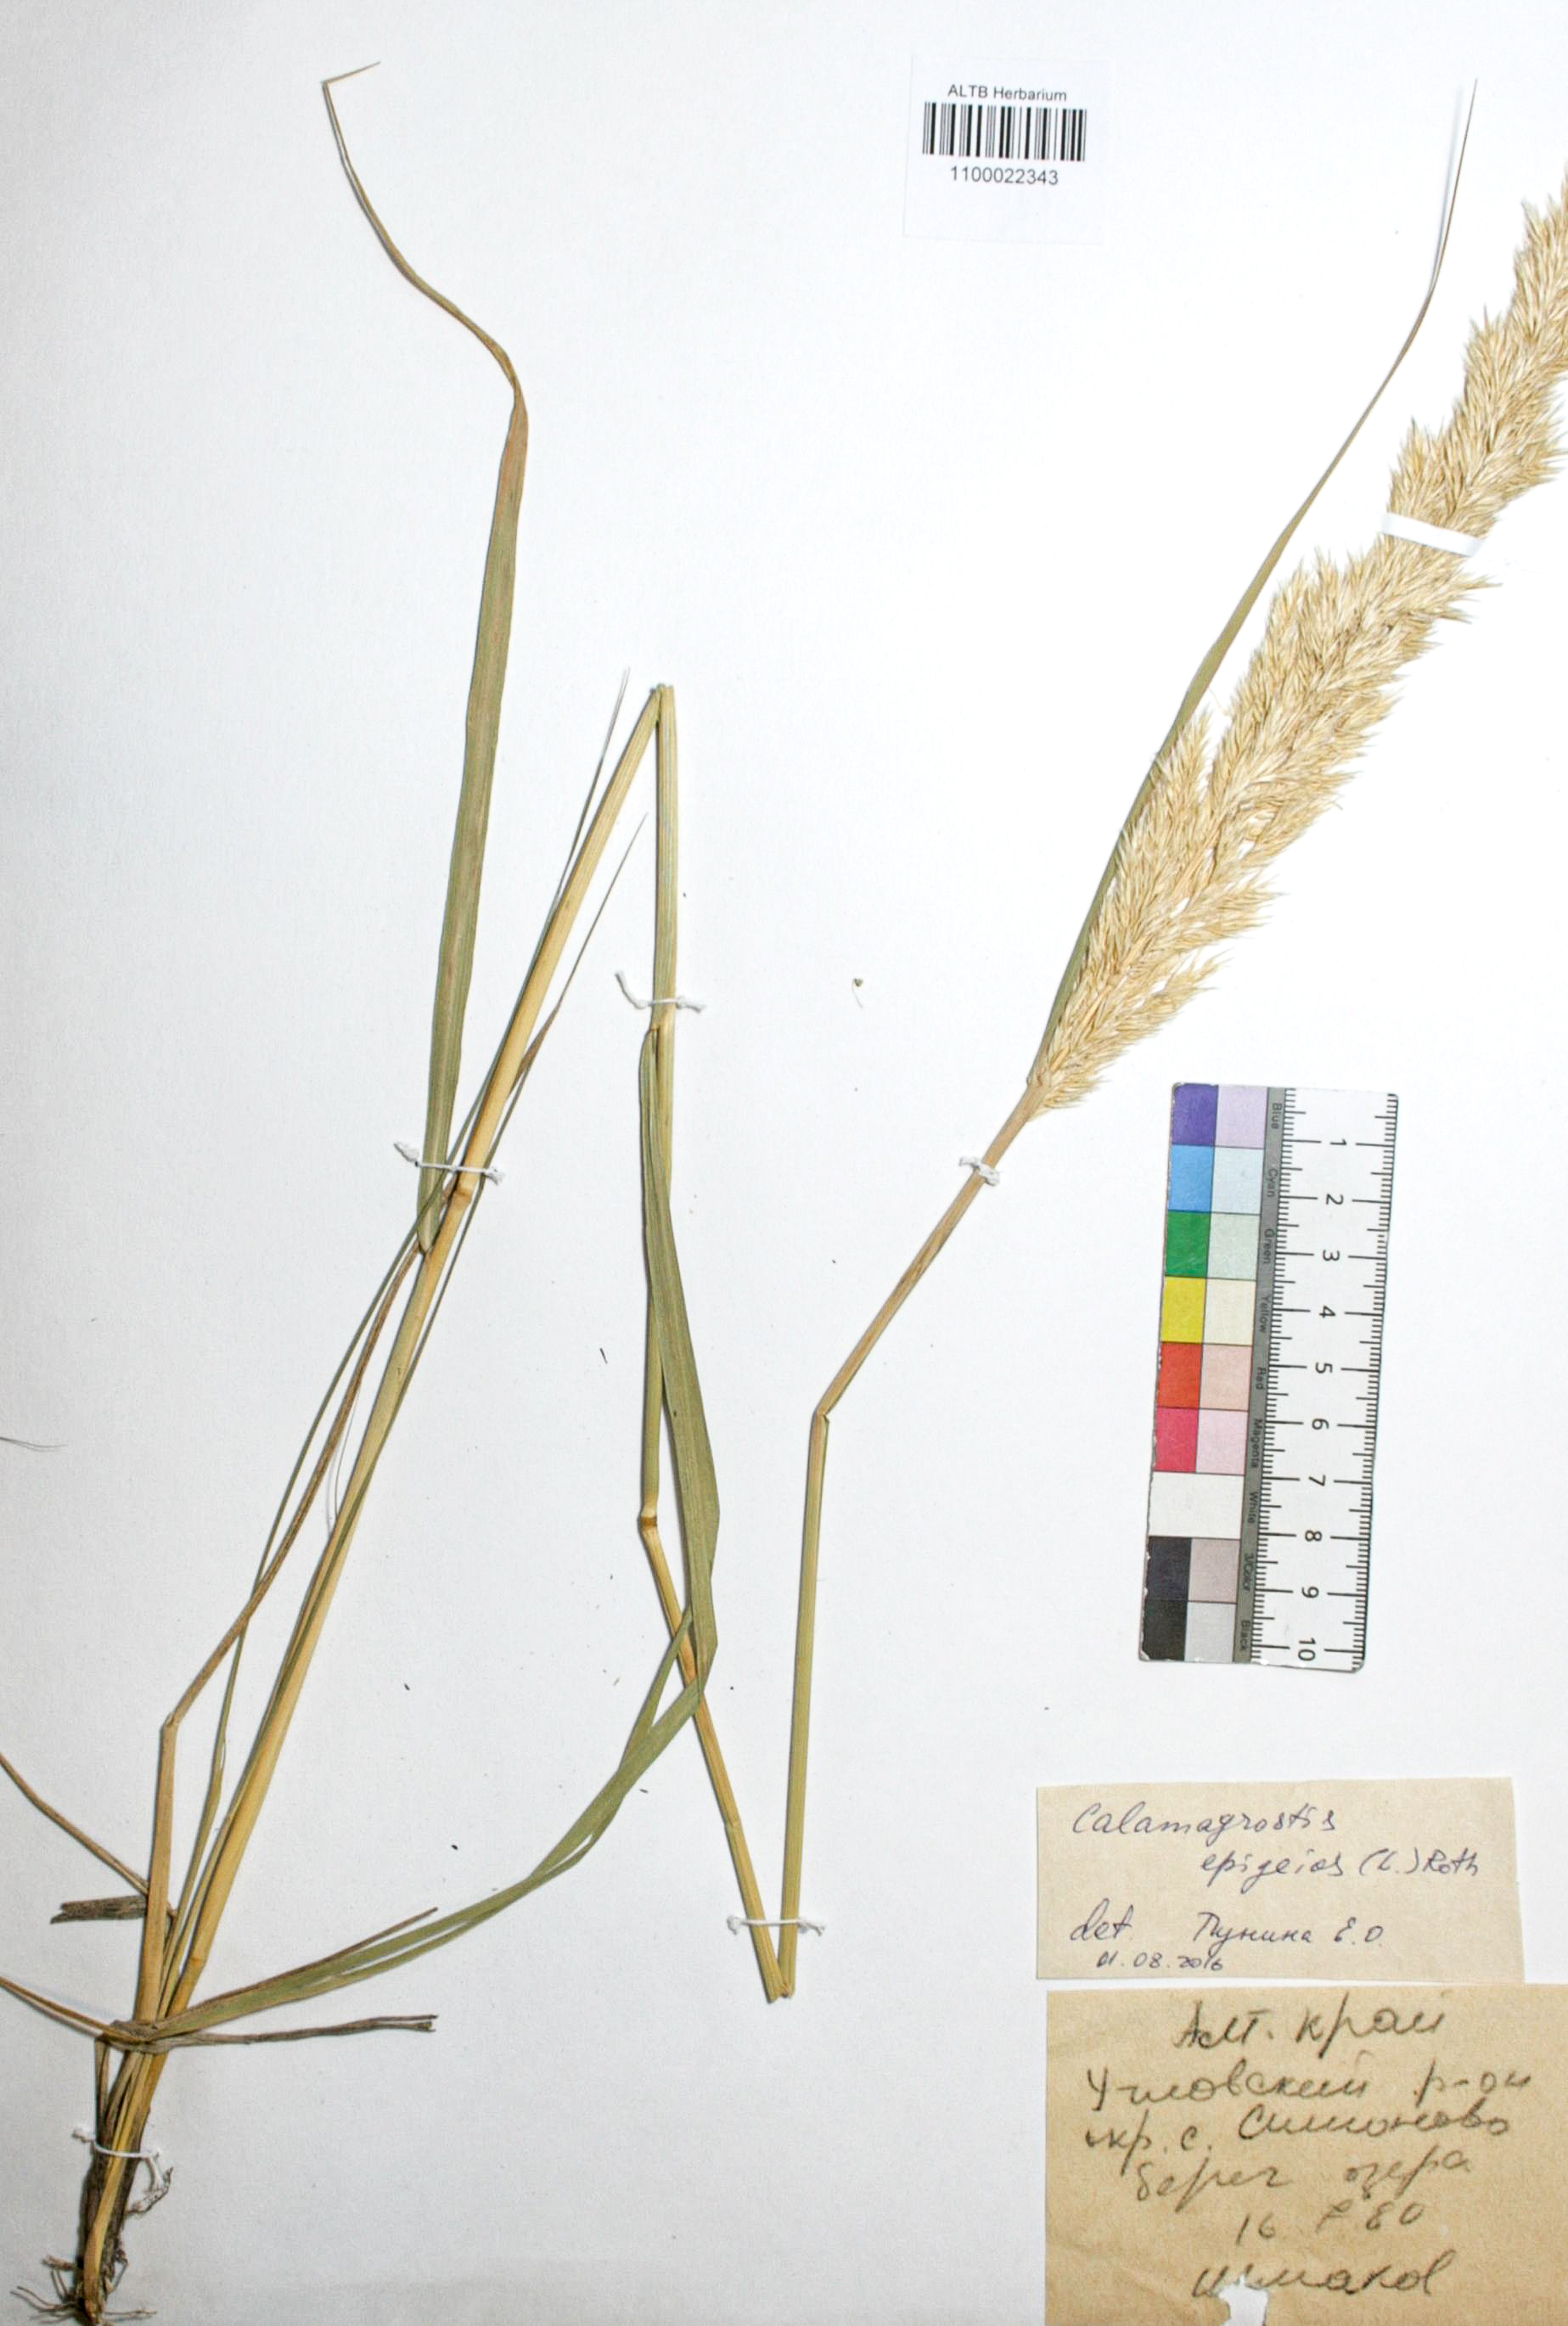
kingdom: Plantae
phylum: Tracheophyta
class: Liliopsida
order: Poales
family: Poaceae
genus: Calamagrostis
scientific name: Calamagrostis epigejos
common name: Wood small-reed
